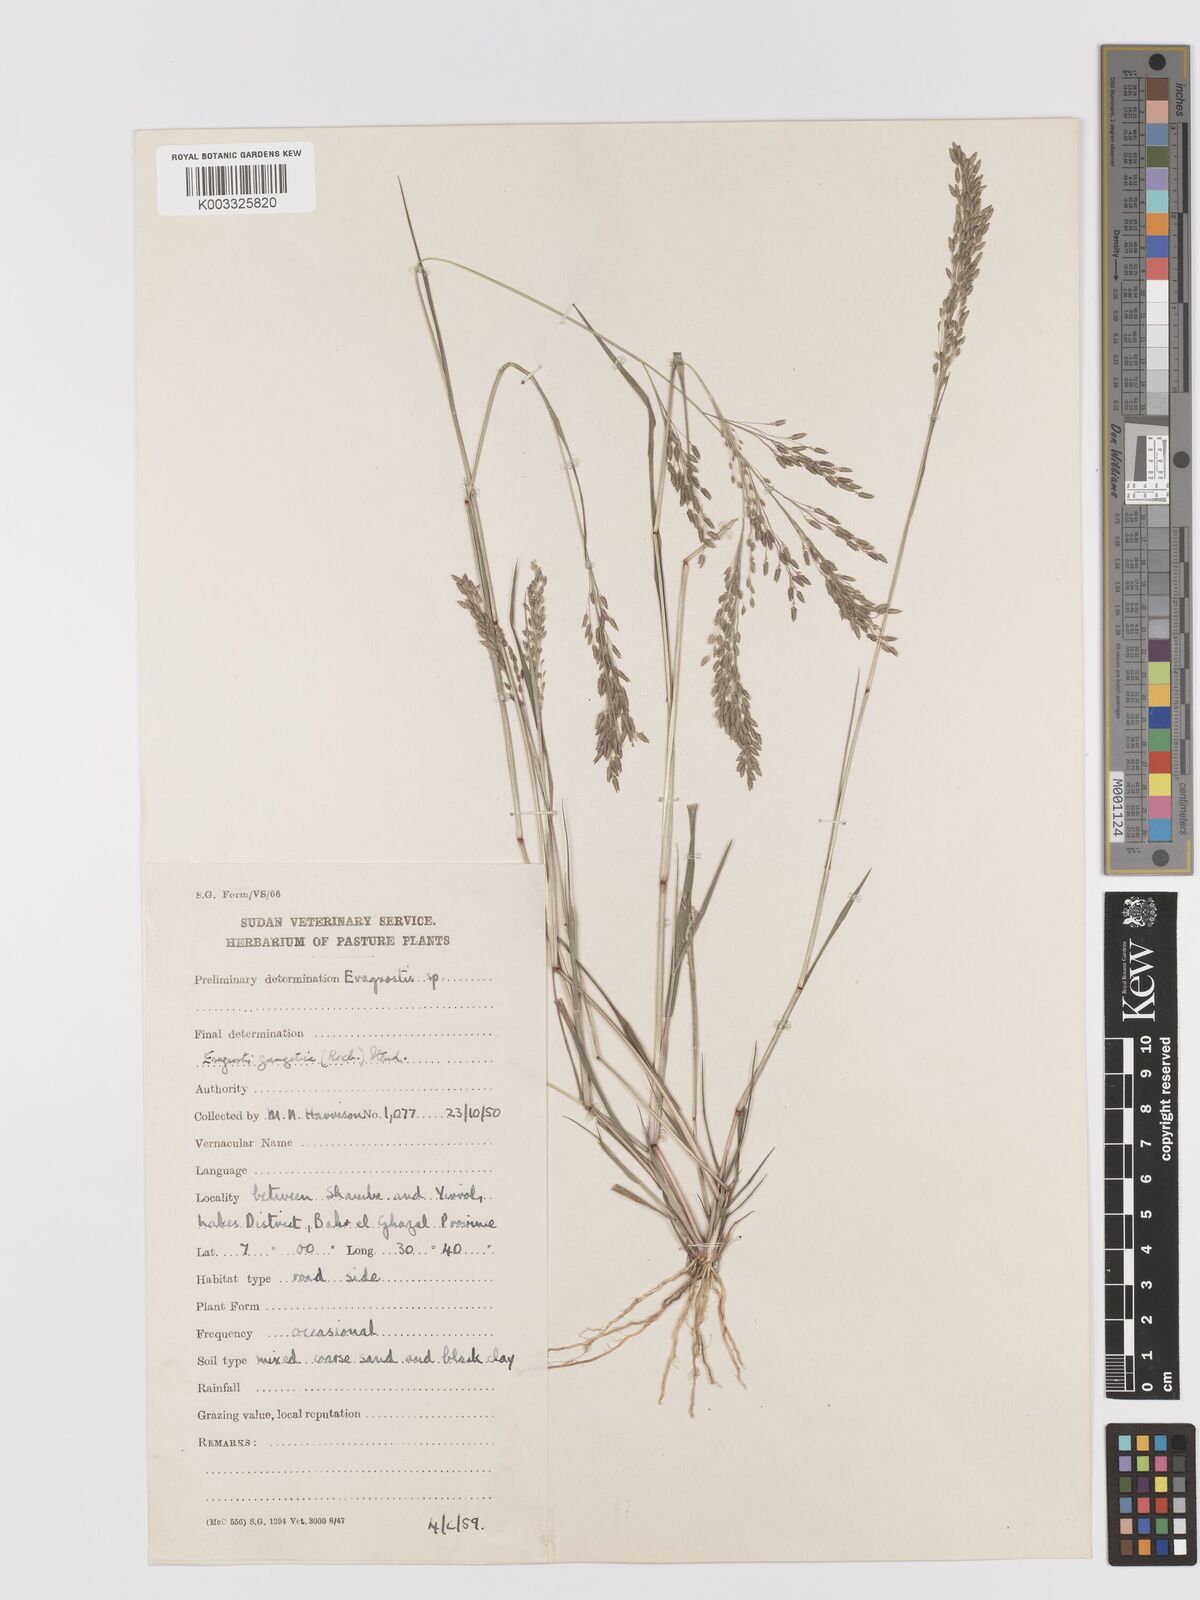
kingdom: Plantae
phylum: Tracheophyta
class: Liliopsida
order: Poales
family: Poaceae
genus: Eragrostis
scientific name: Eragrostis gangetica
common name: Slimflower lovegrass
